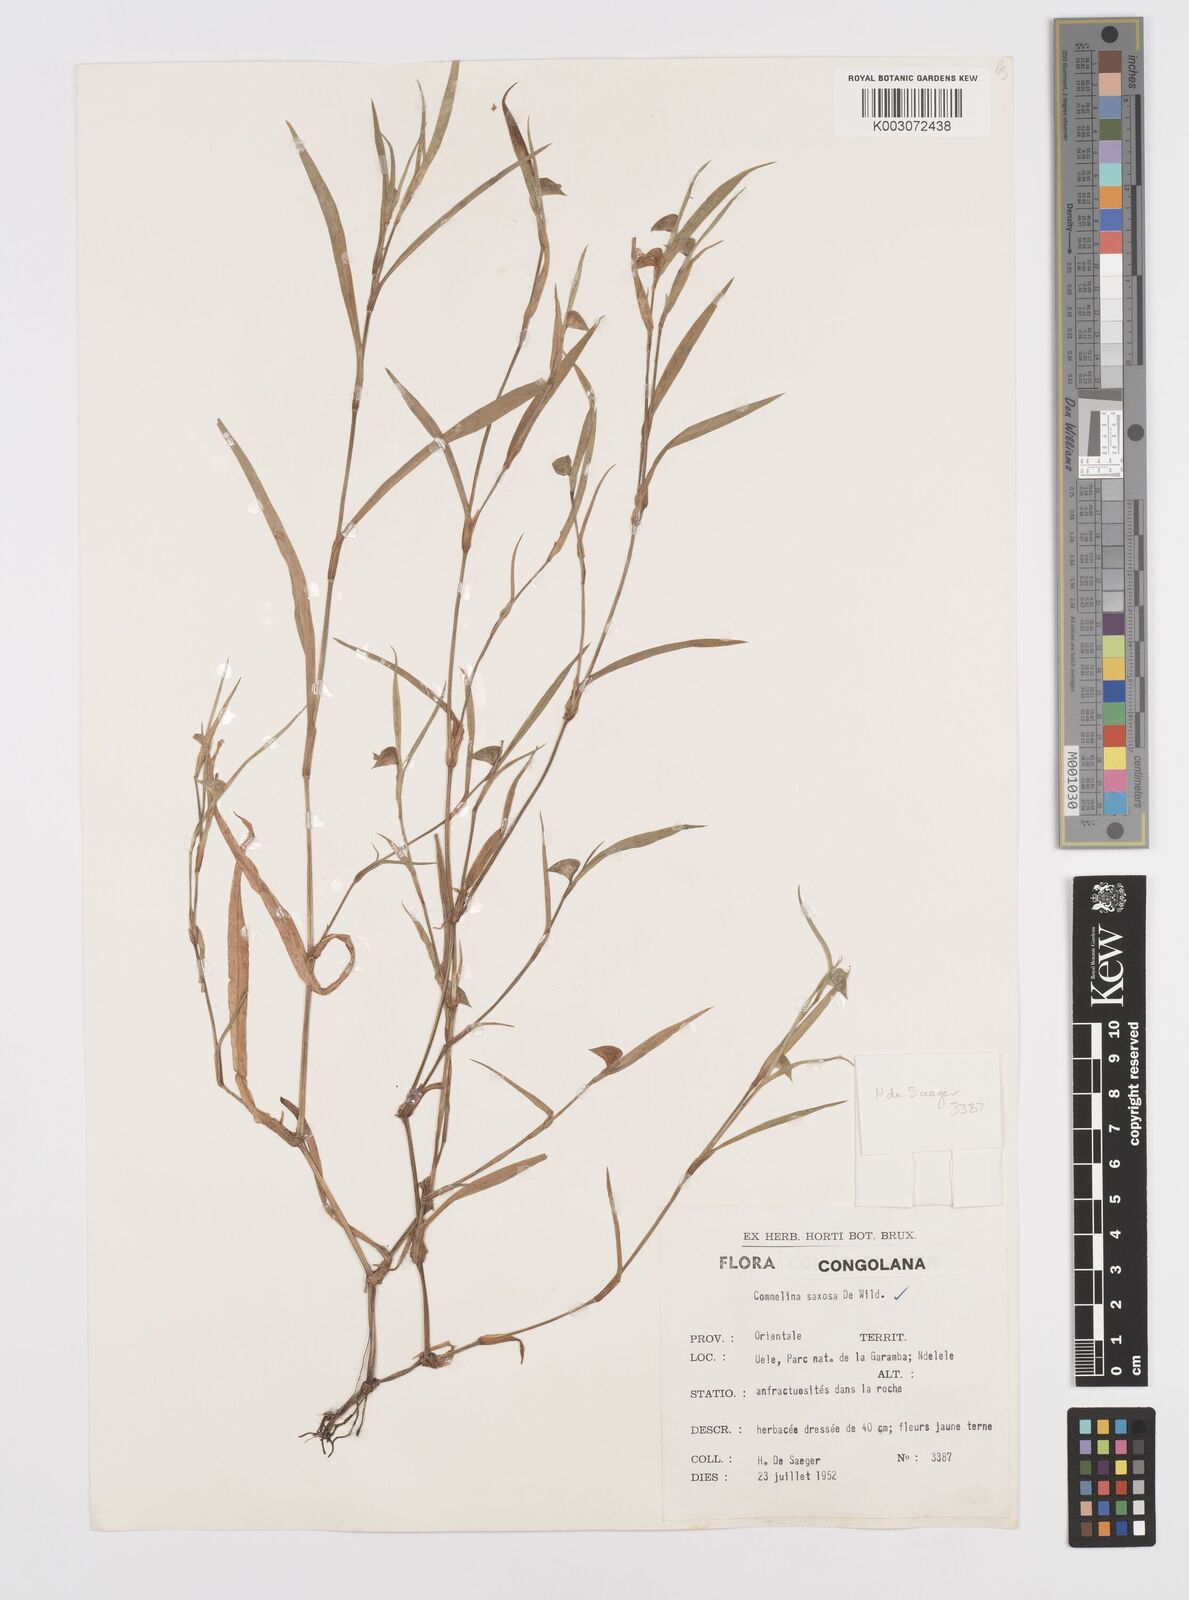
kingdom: Plantae
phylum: Tracheophyta
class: Liliopsida
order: Commelinales
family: Commelinaceae
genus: Commelina
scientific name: Commelina saxosa
